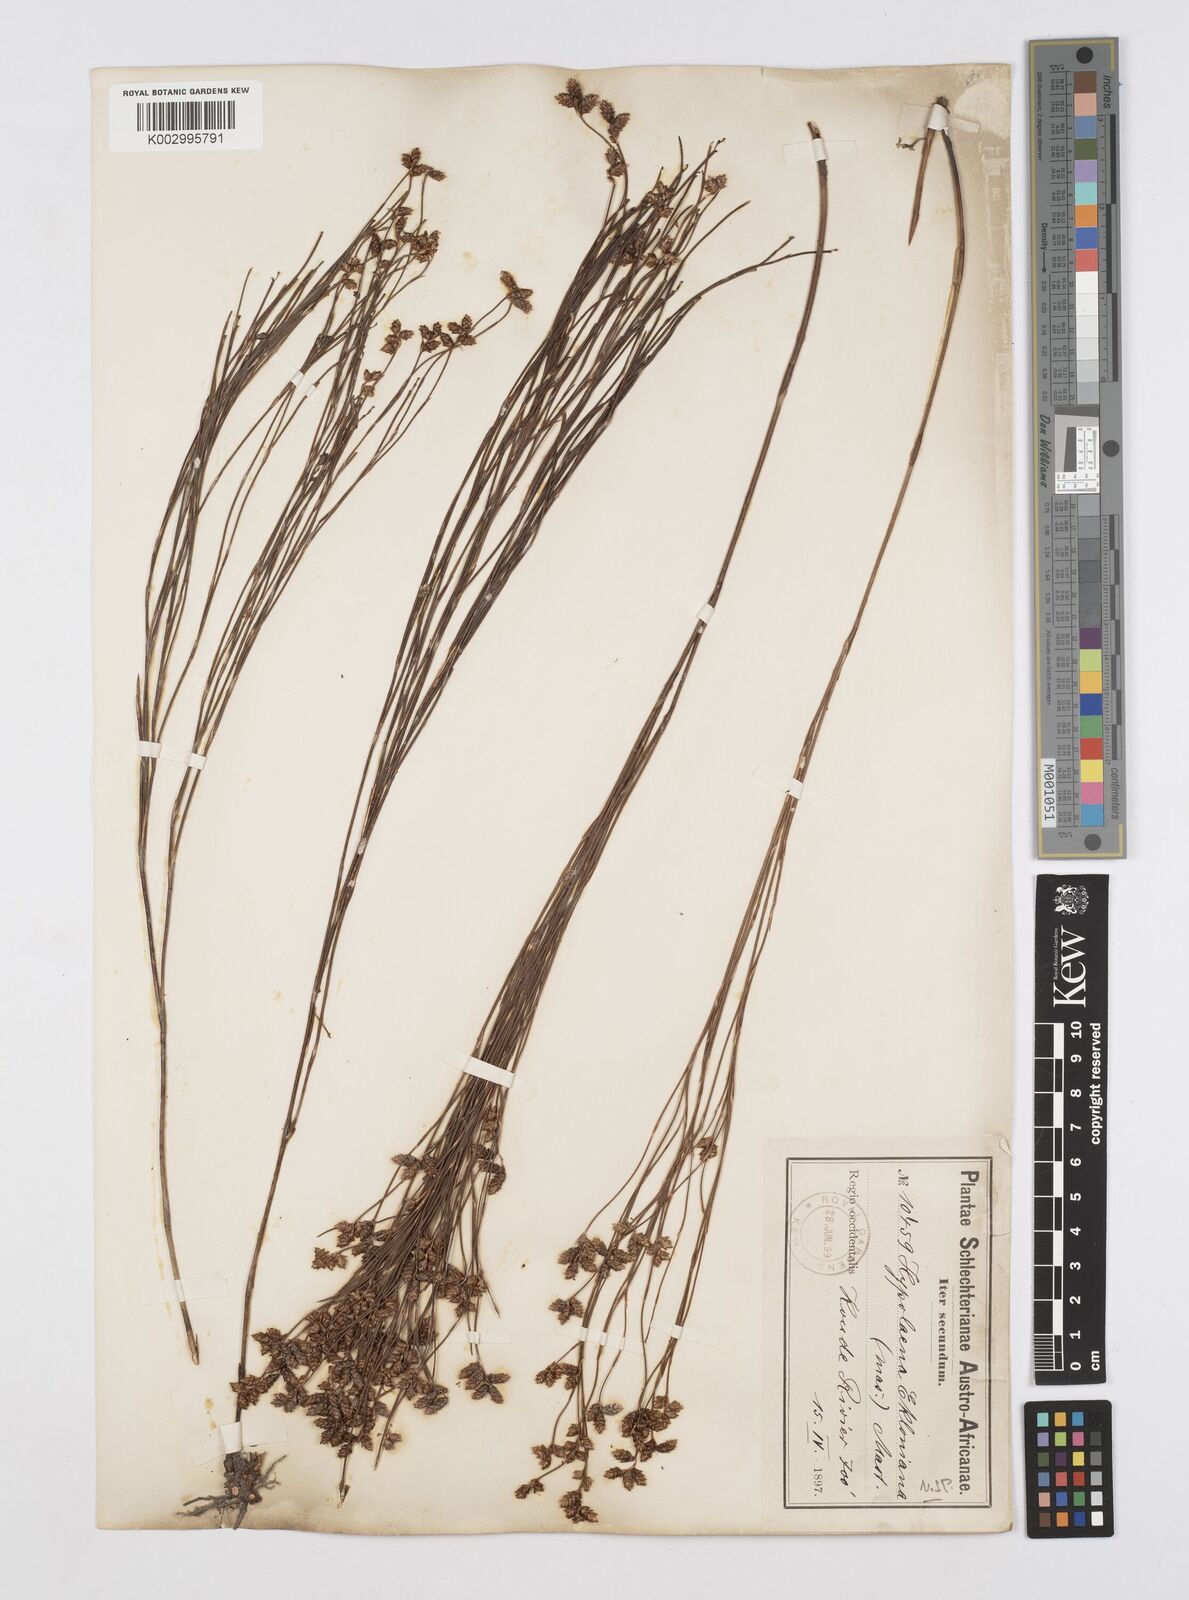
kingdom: Plantae
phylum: Tracheophyta
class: Liliopsida
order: Poales
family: Restionaceae
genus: Mastersiella
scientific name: Mastersiella digitata
